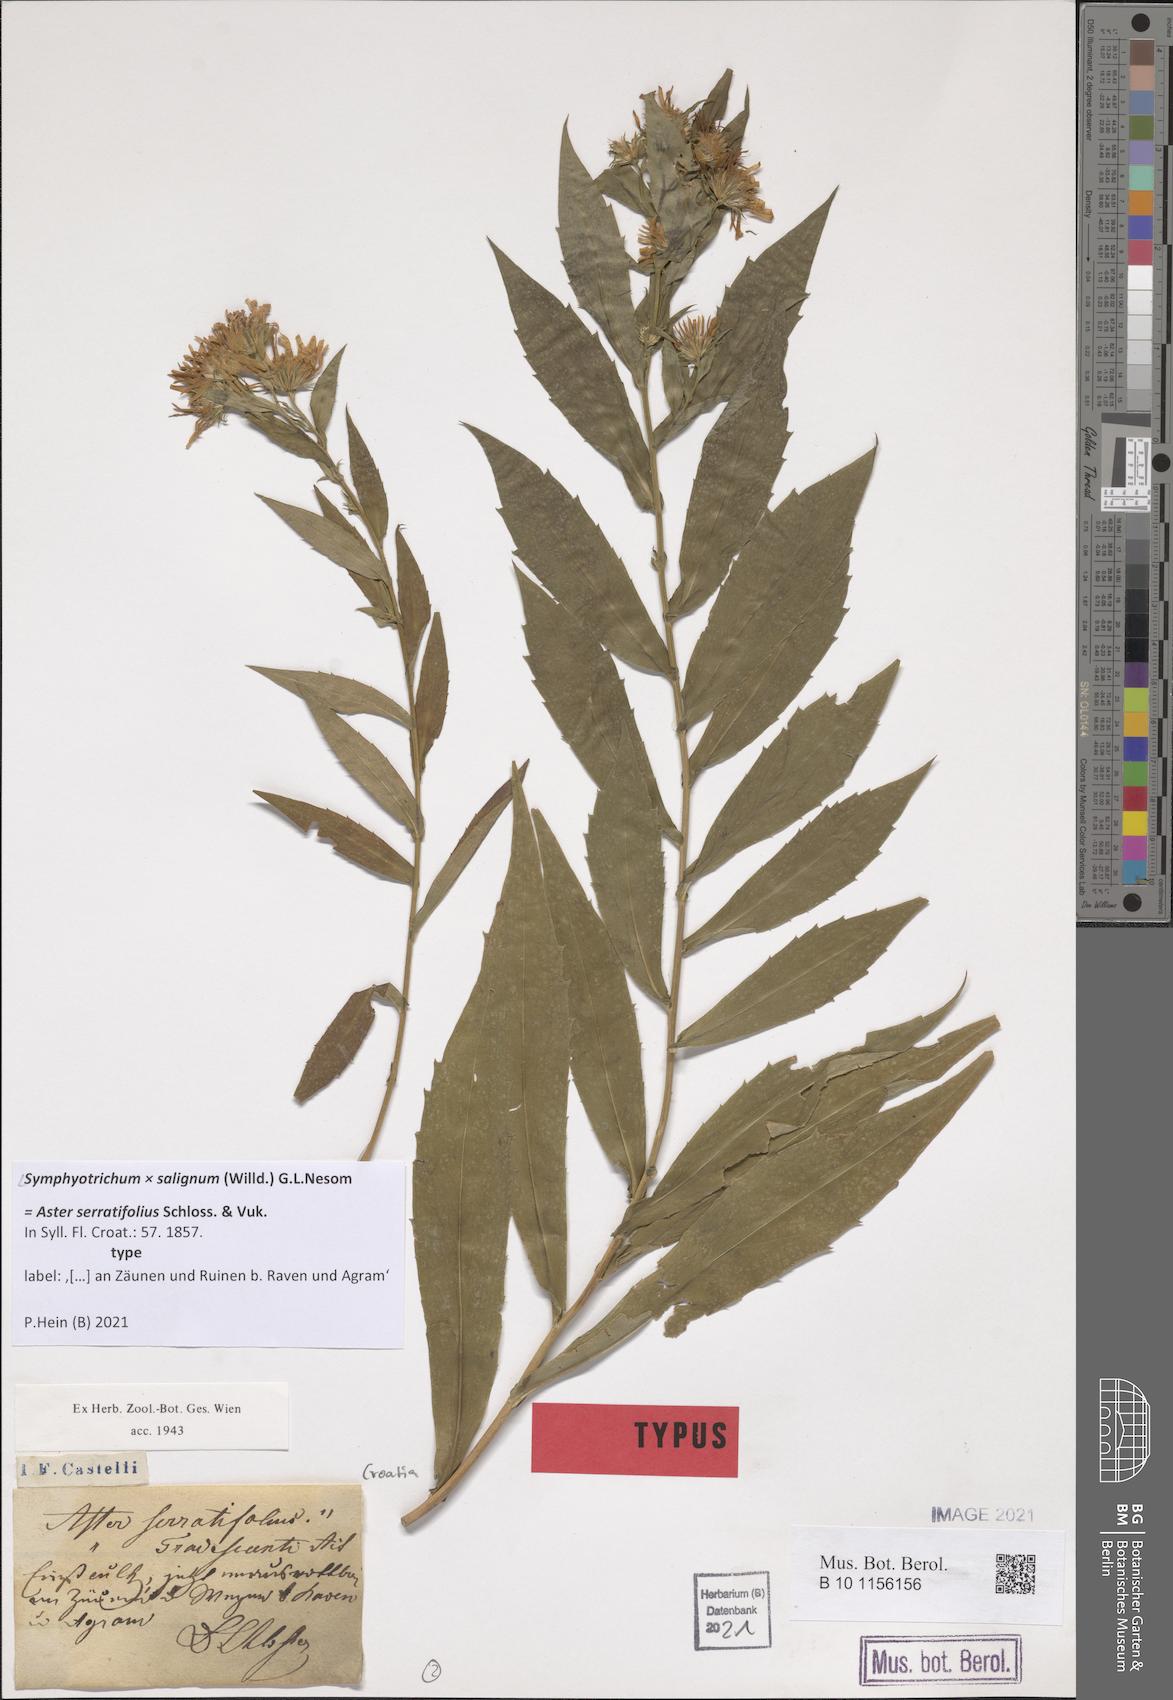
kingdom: Plantae
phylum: Tracheophyta
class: Magnoliopsida
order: Asterales
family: Asteraceae
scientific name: Asteraceae
